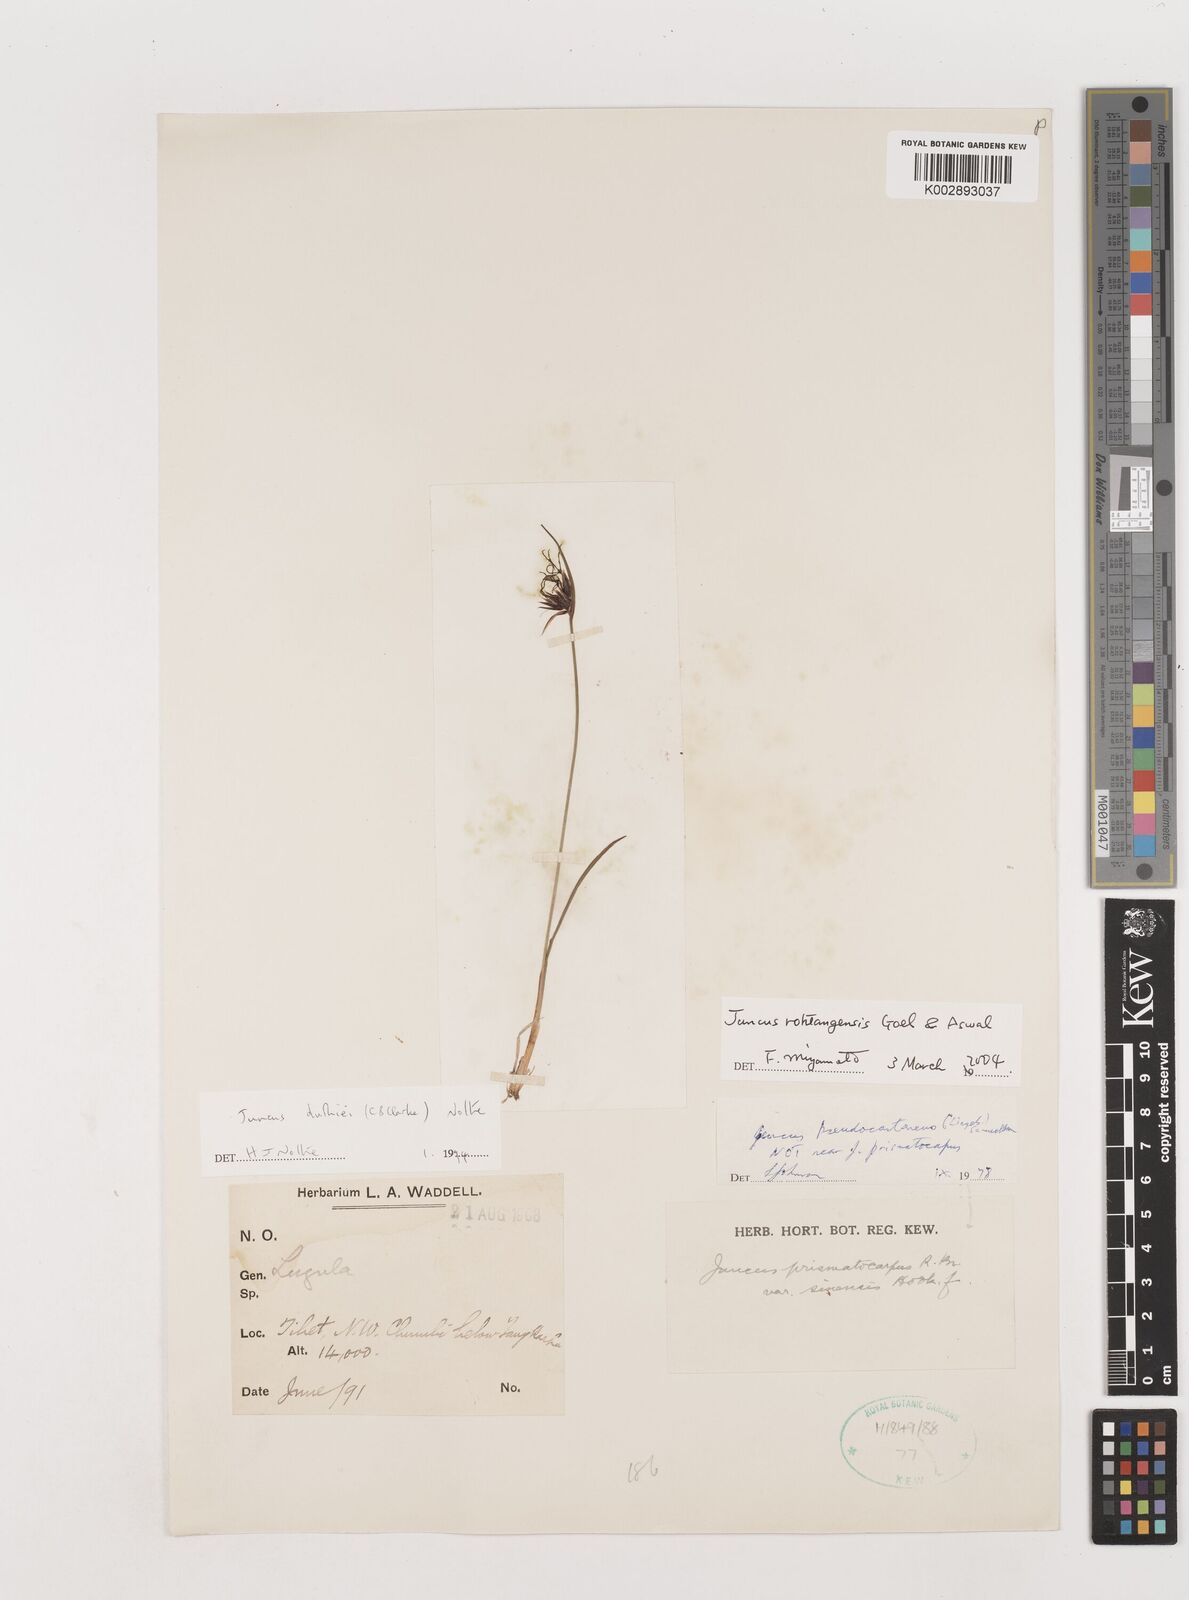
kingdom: Plantae
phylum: Tracheophyta
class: Liliopsida
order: Poales
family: Juncaceae
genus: Juncus
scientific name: Juncus duthiei
